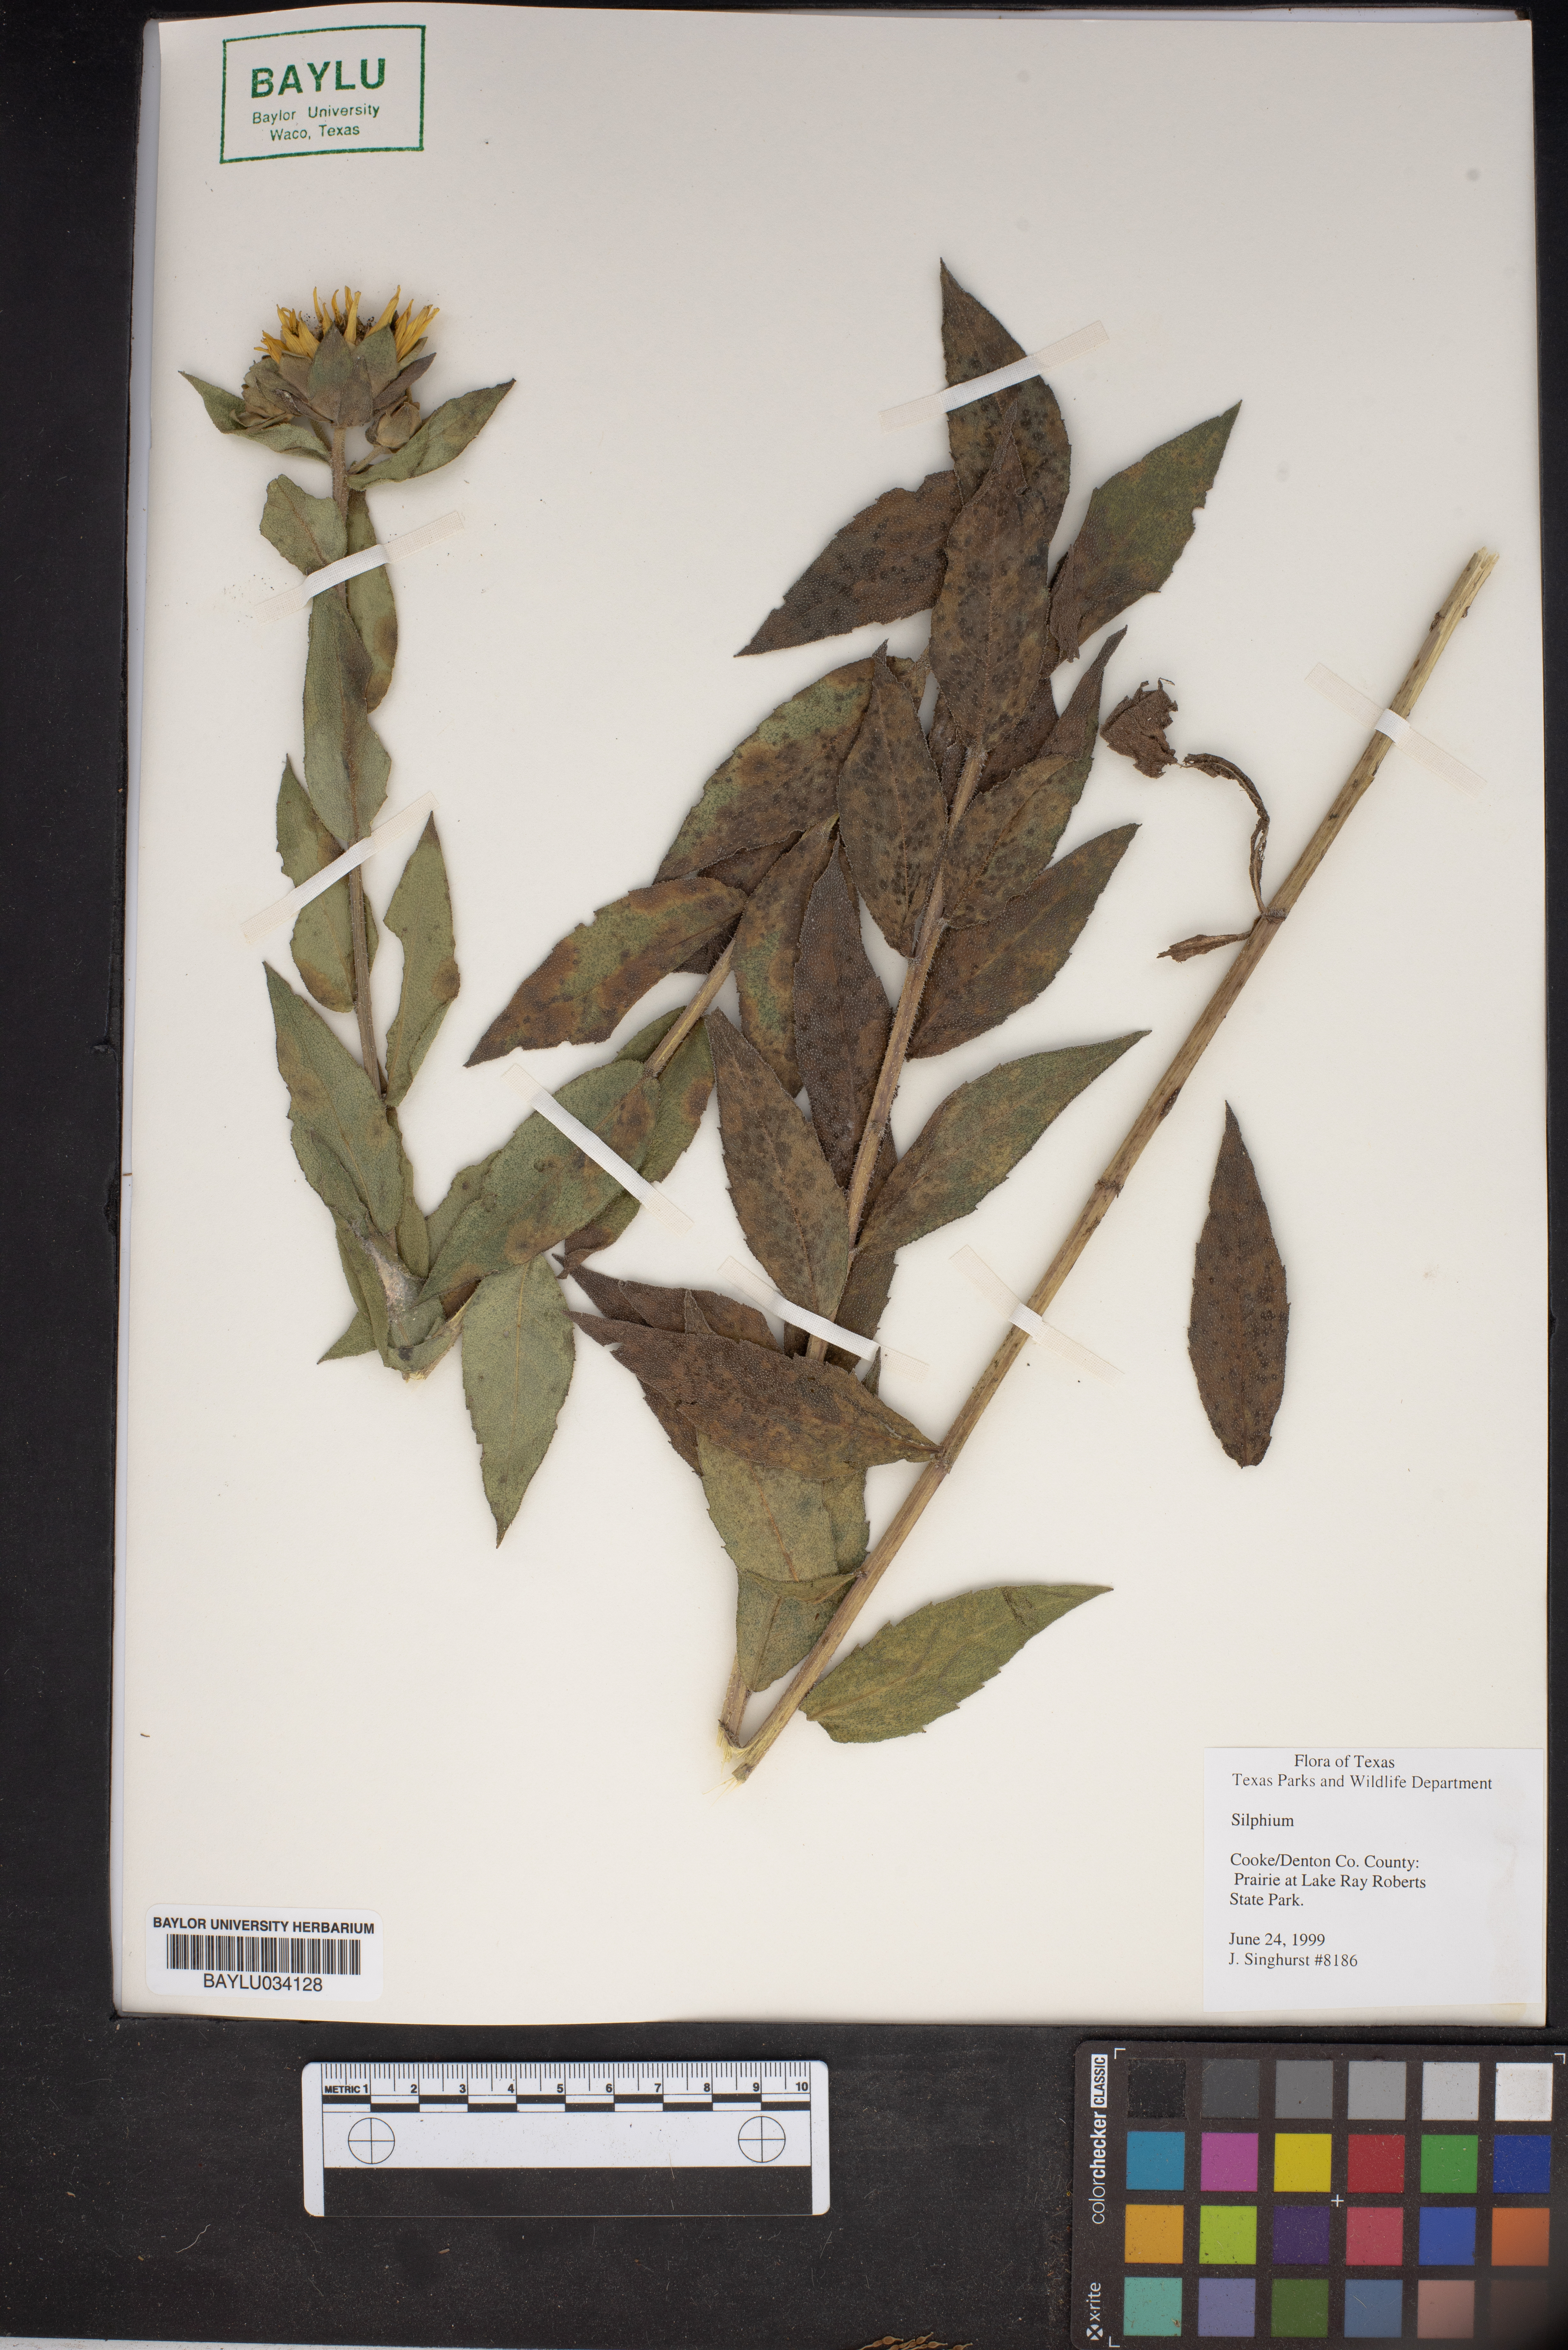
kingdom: Plantae
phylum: Tracheophyta
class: Magnoliopsida
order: Asterales
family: Asteraceae
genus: Silphium
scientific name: Silphium
